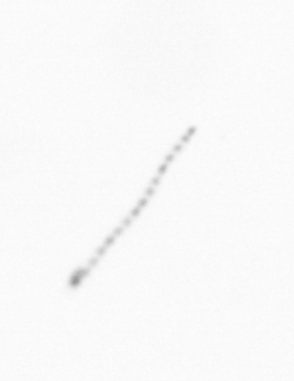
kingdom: Chromista
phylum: Ochrophyta
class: Bacillariophyceae
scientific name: Bacillariophyceae
